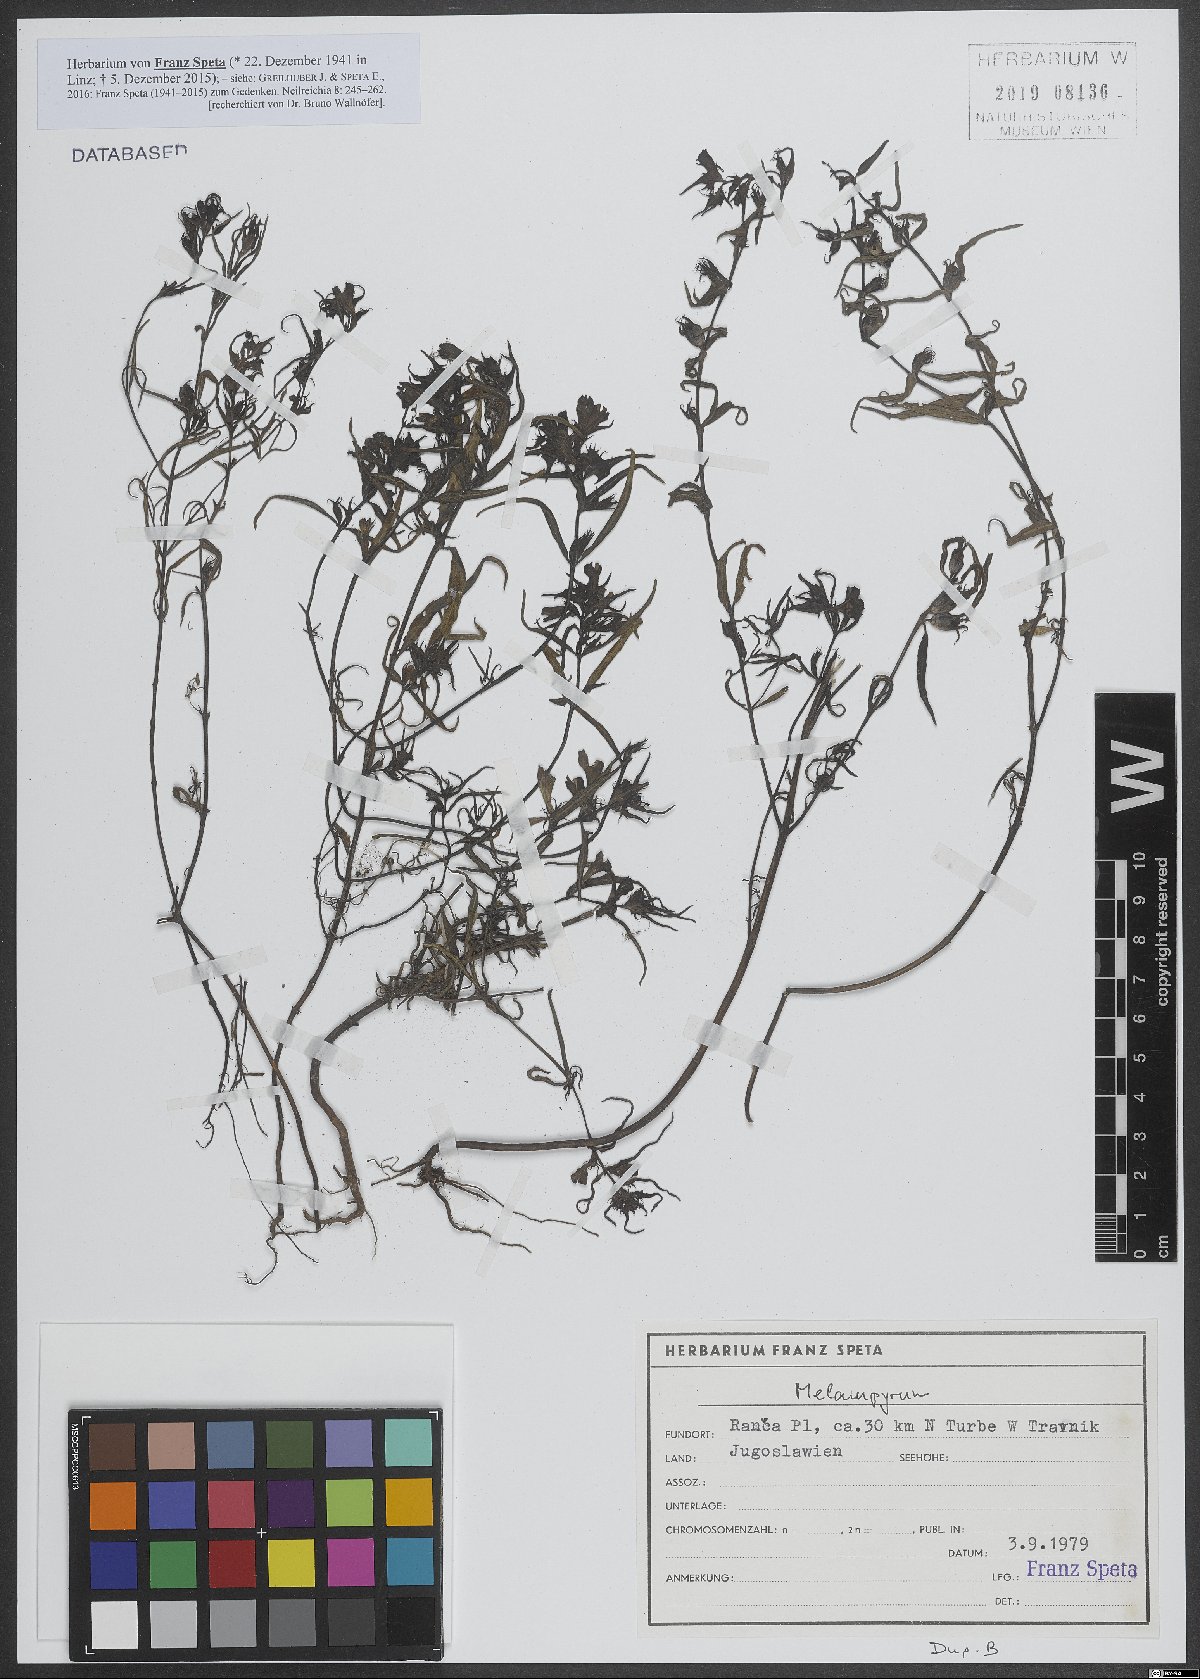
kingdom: Plantae
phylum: Tracheophyta
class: Magnoliopsida
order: Lamiales
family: Orobanchaceae
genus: Melampyrum
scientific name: Melampyrum
